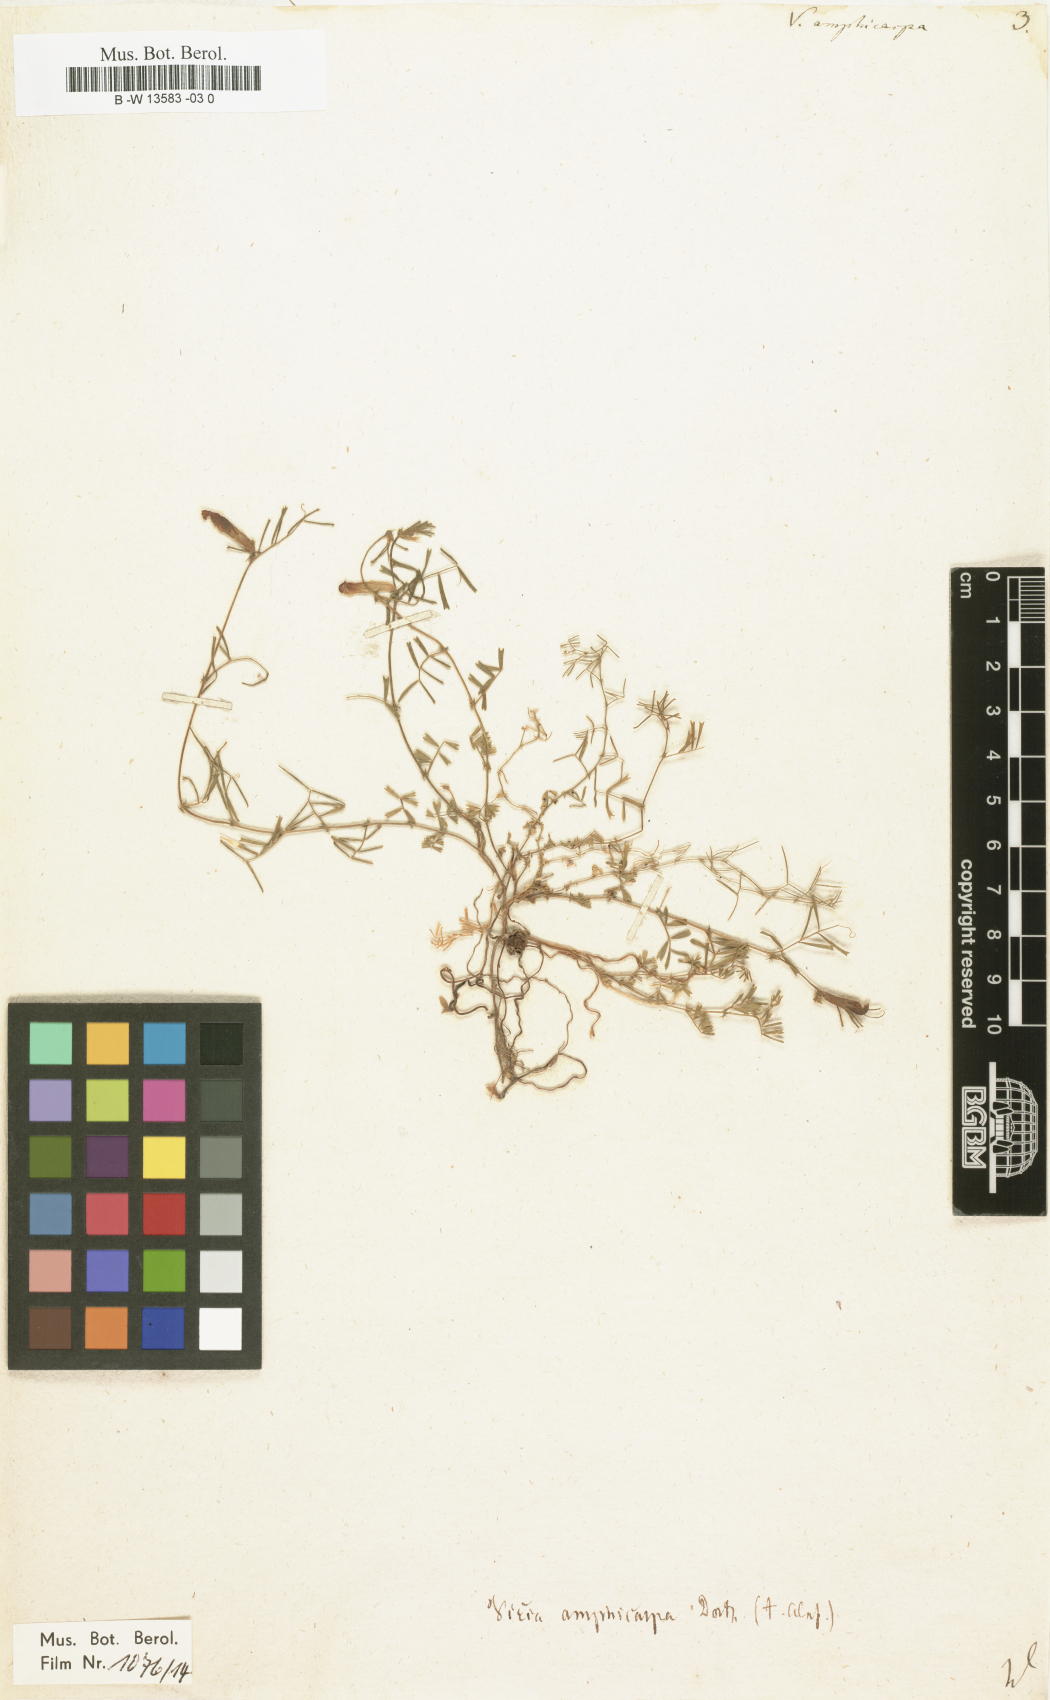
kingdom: Plantae
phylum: Tracheophyta
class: Magnoliopsida
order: Fabales
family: Fabaceae
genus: Vicia
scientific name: Vicia sativa
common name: Garden vetch
